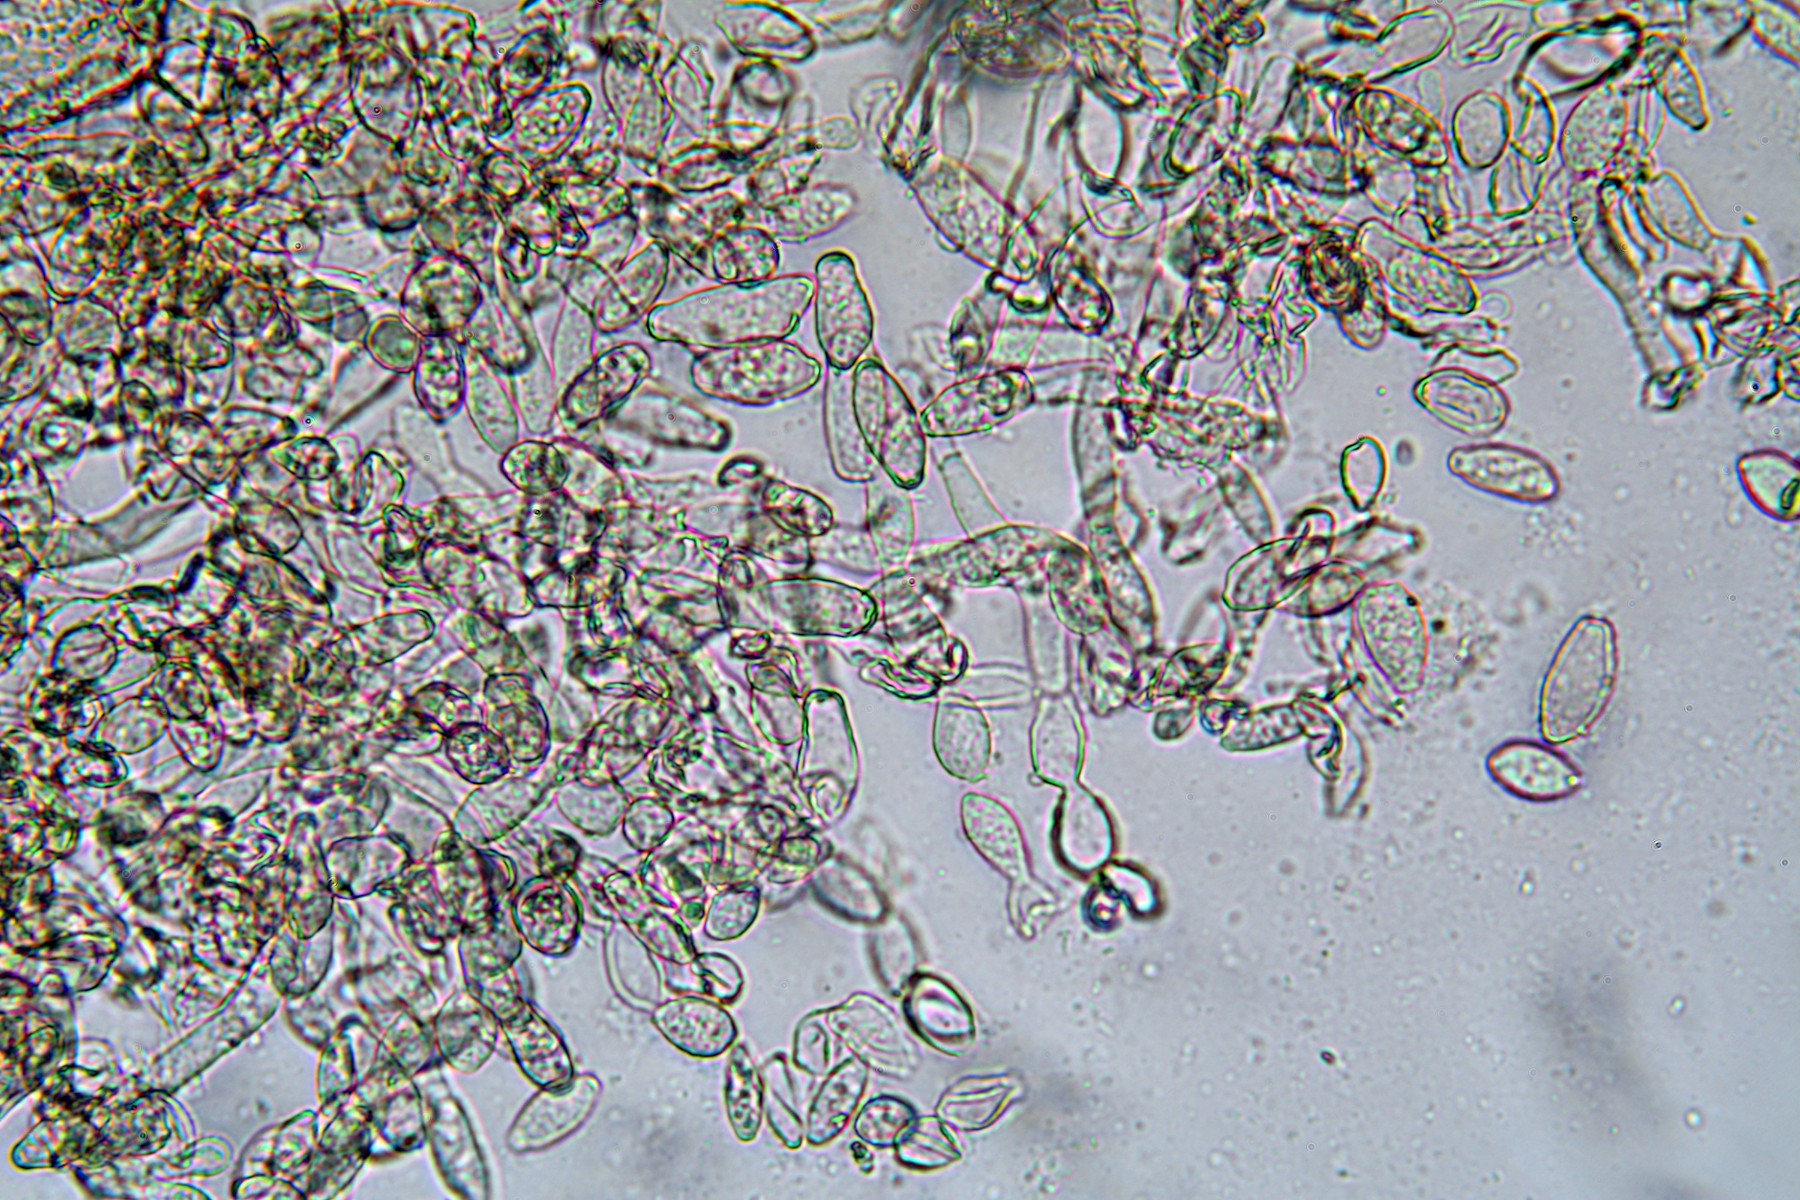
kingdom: Fungi
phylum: Ascomycota
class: Leotiomycetes
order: Helotiales
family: Sclerotiniaceae
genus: Monilinia
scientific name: Monilinia laxa
